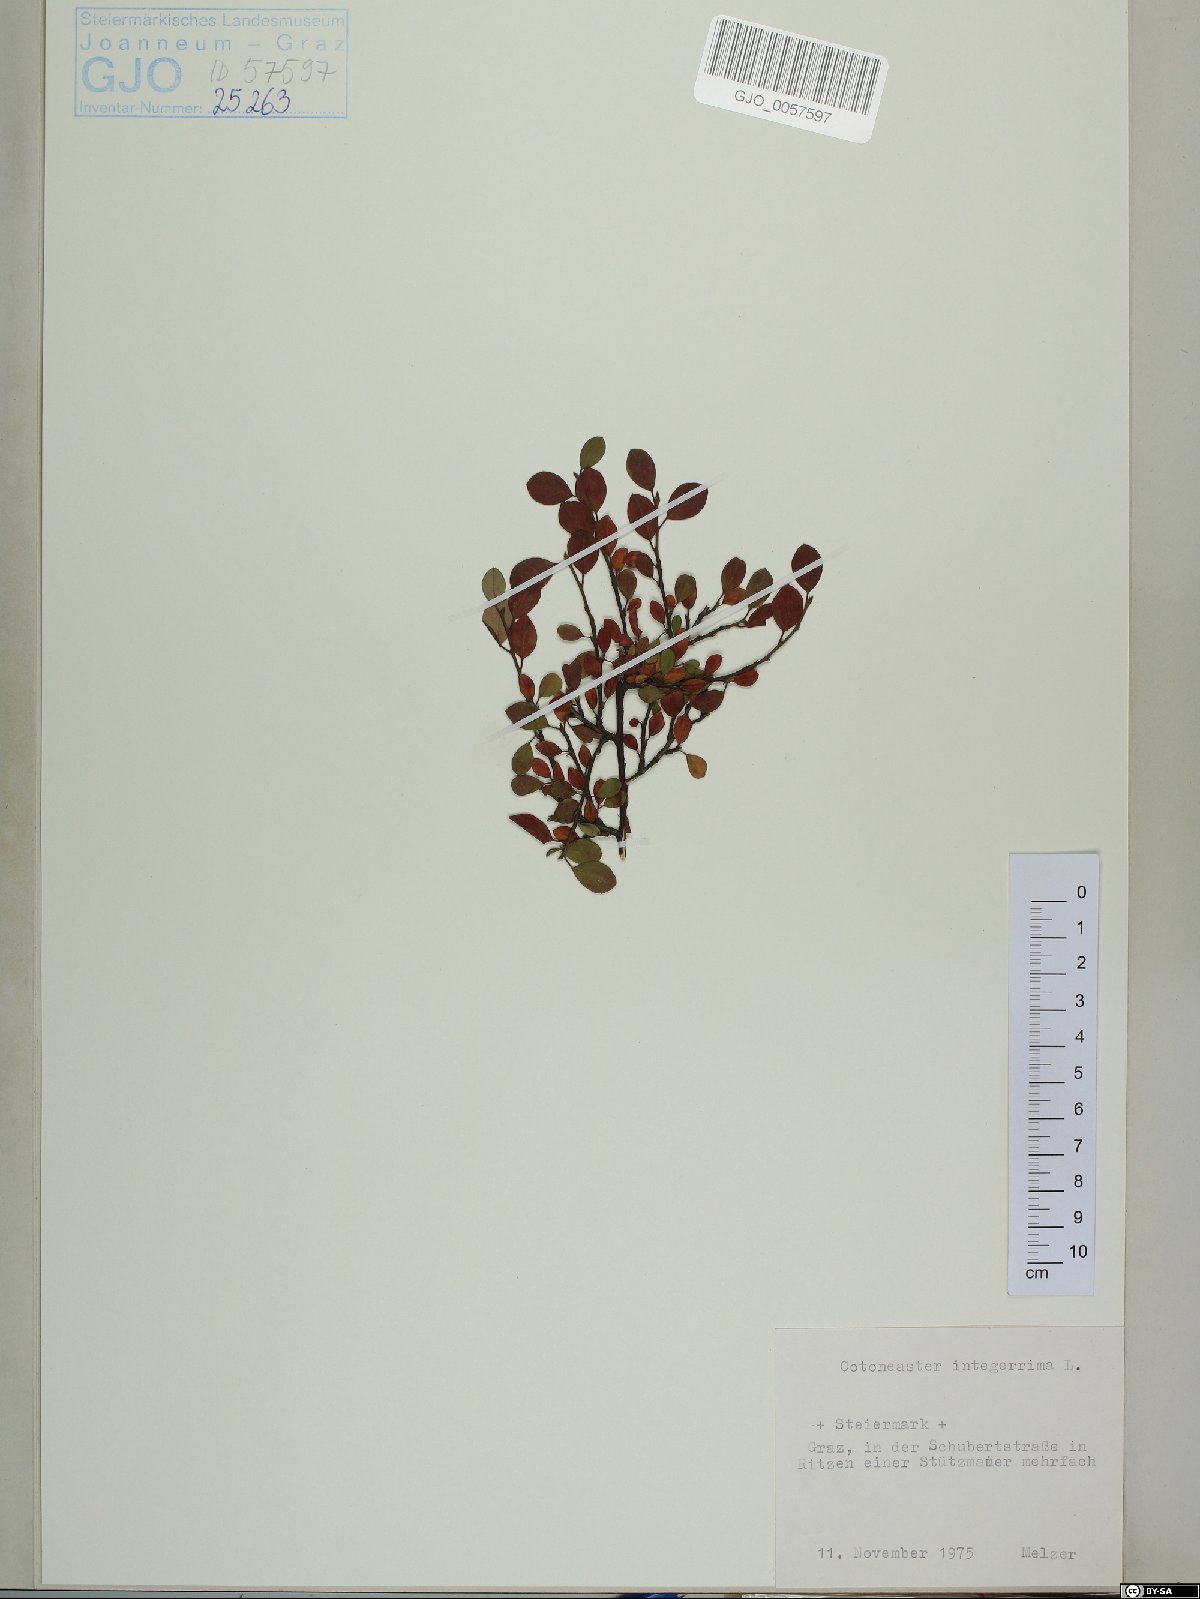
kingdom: Plantae
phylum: Tracheophyta
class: Magnoliopsida
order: Rosales
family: Rosaceae
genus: Cotoneaster
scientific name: Cotoneaster integerrimus
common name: Wild cotoneaster
